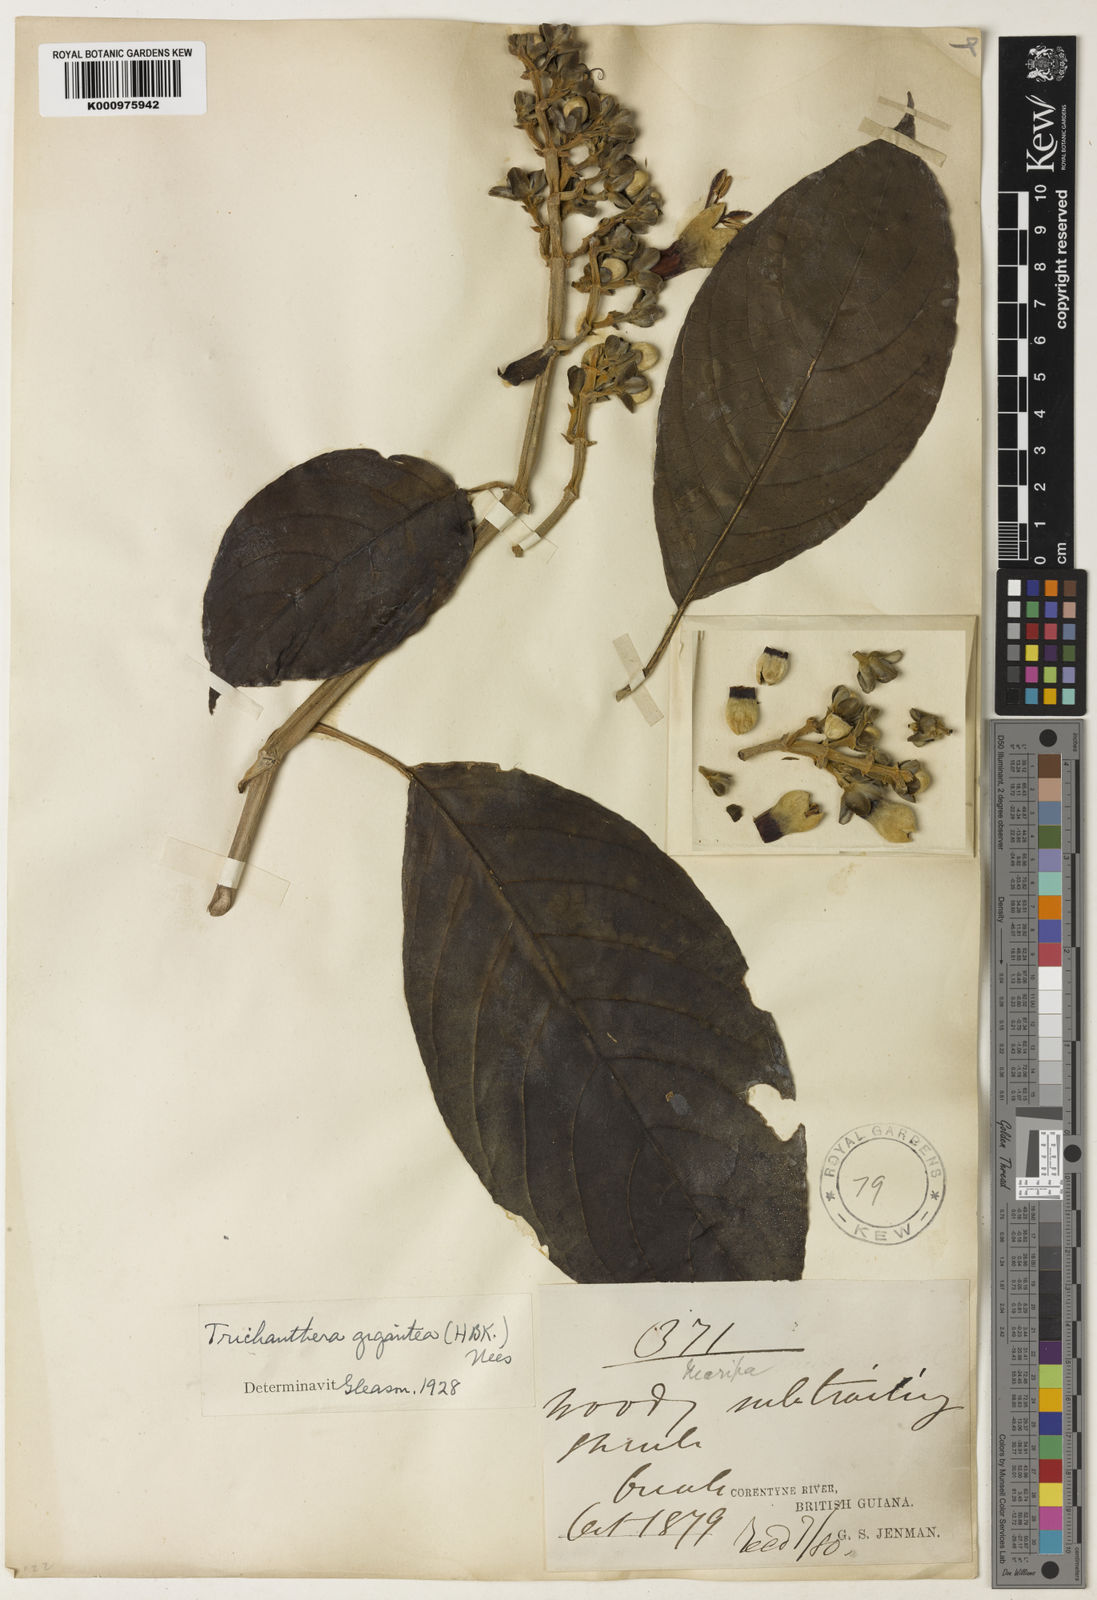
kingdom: Plantae
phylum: Tracheophyta
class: Magnoliopsida
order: Lamiales
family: Acanthaceae
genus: Trichanthera
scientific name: Trichanthera gigantea
